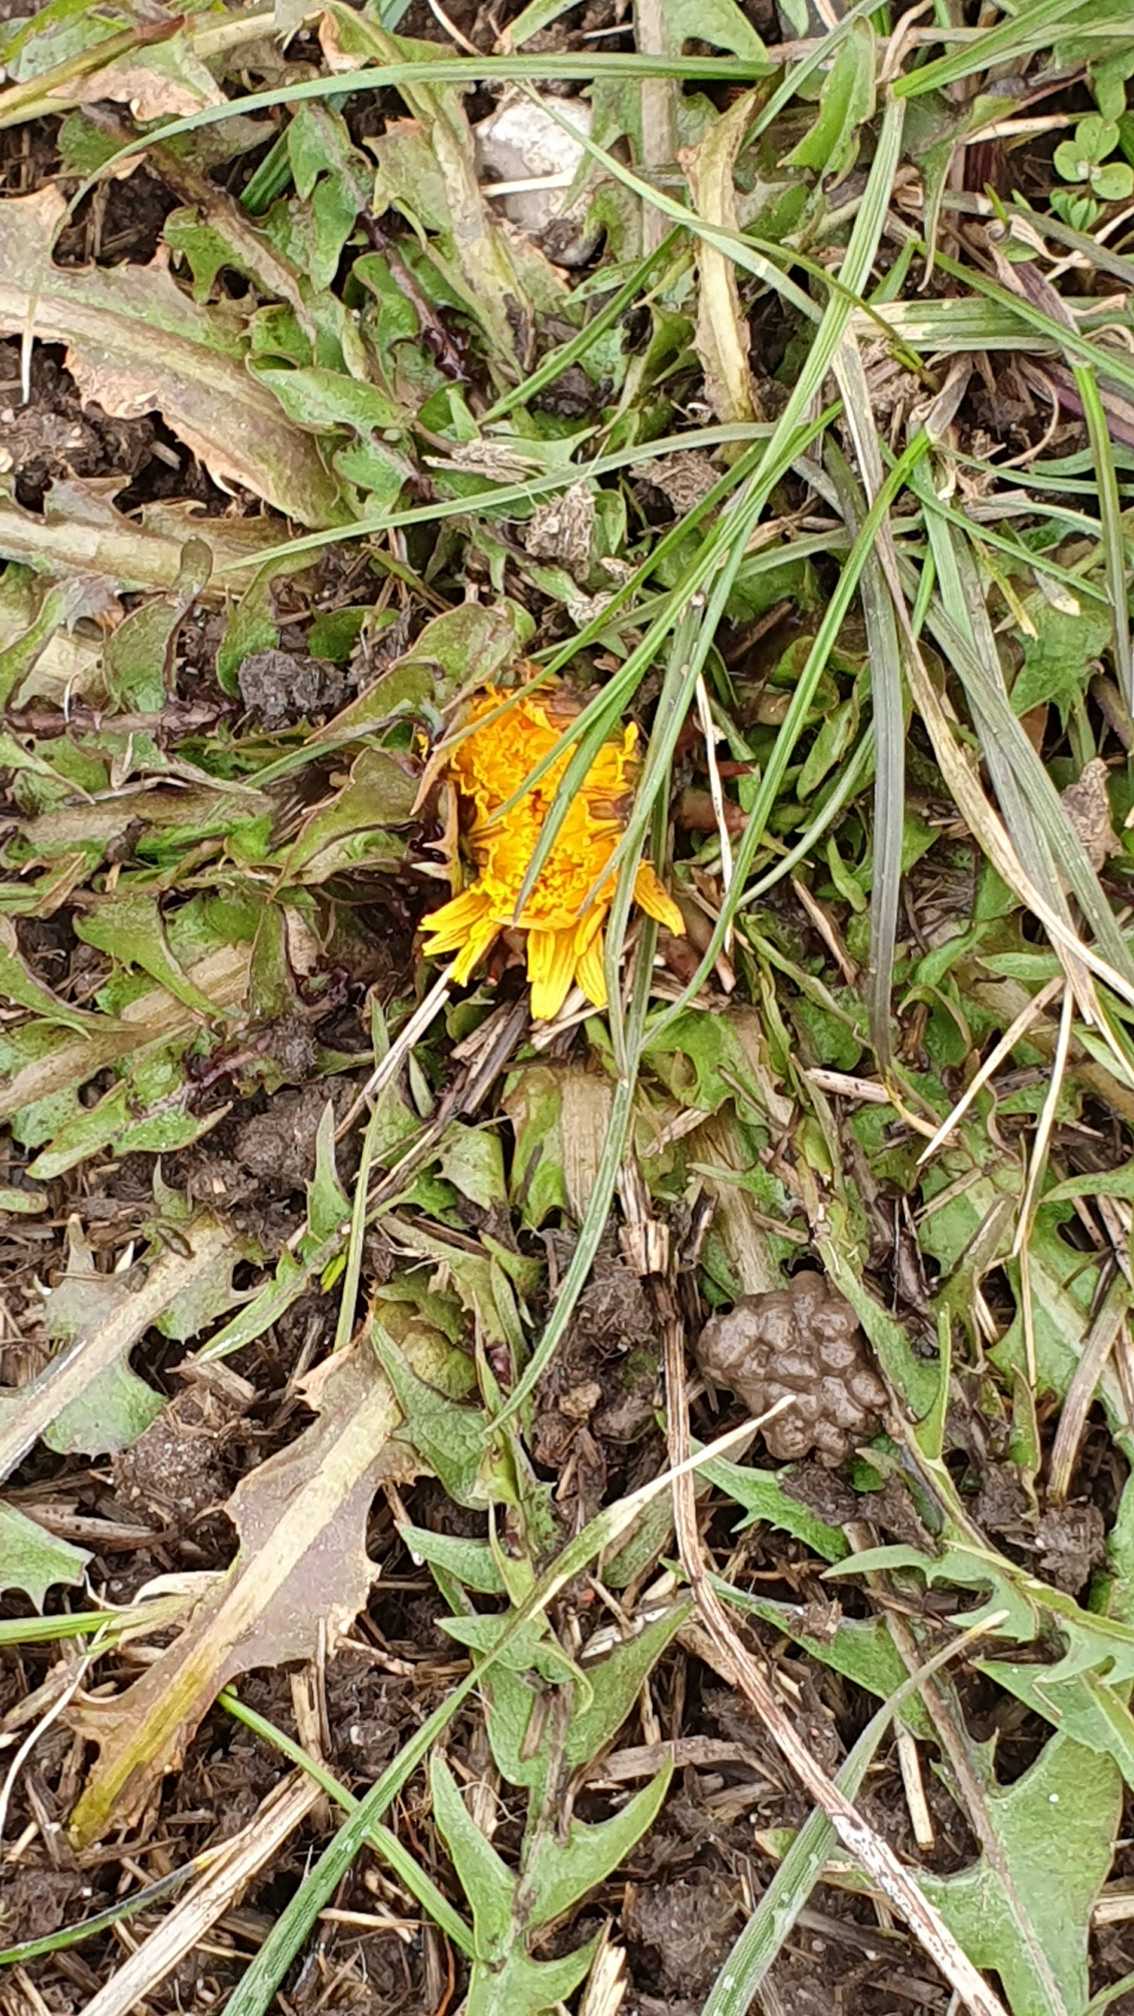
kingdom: Plantae
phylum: Tracheophyta
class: Magnoliopsida
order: Asterales
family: Asteraceae
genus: Taraxacum
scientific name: Taraxacum
